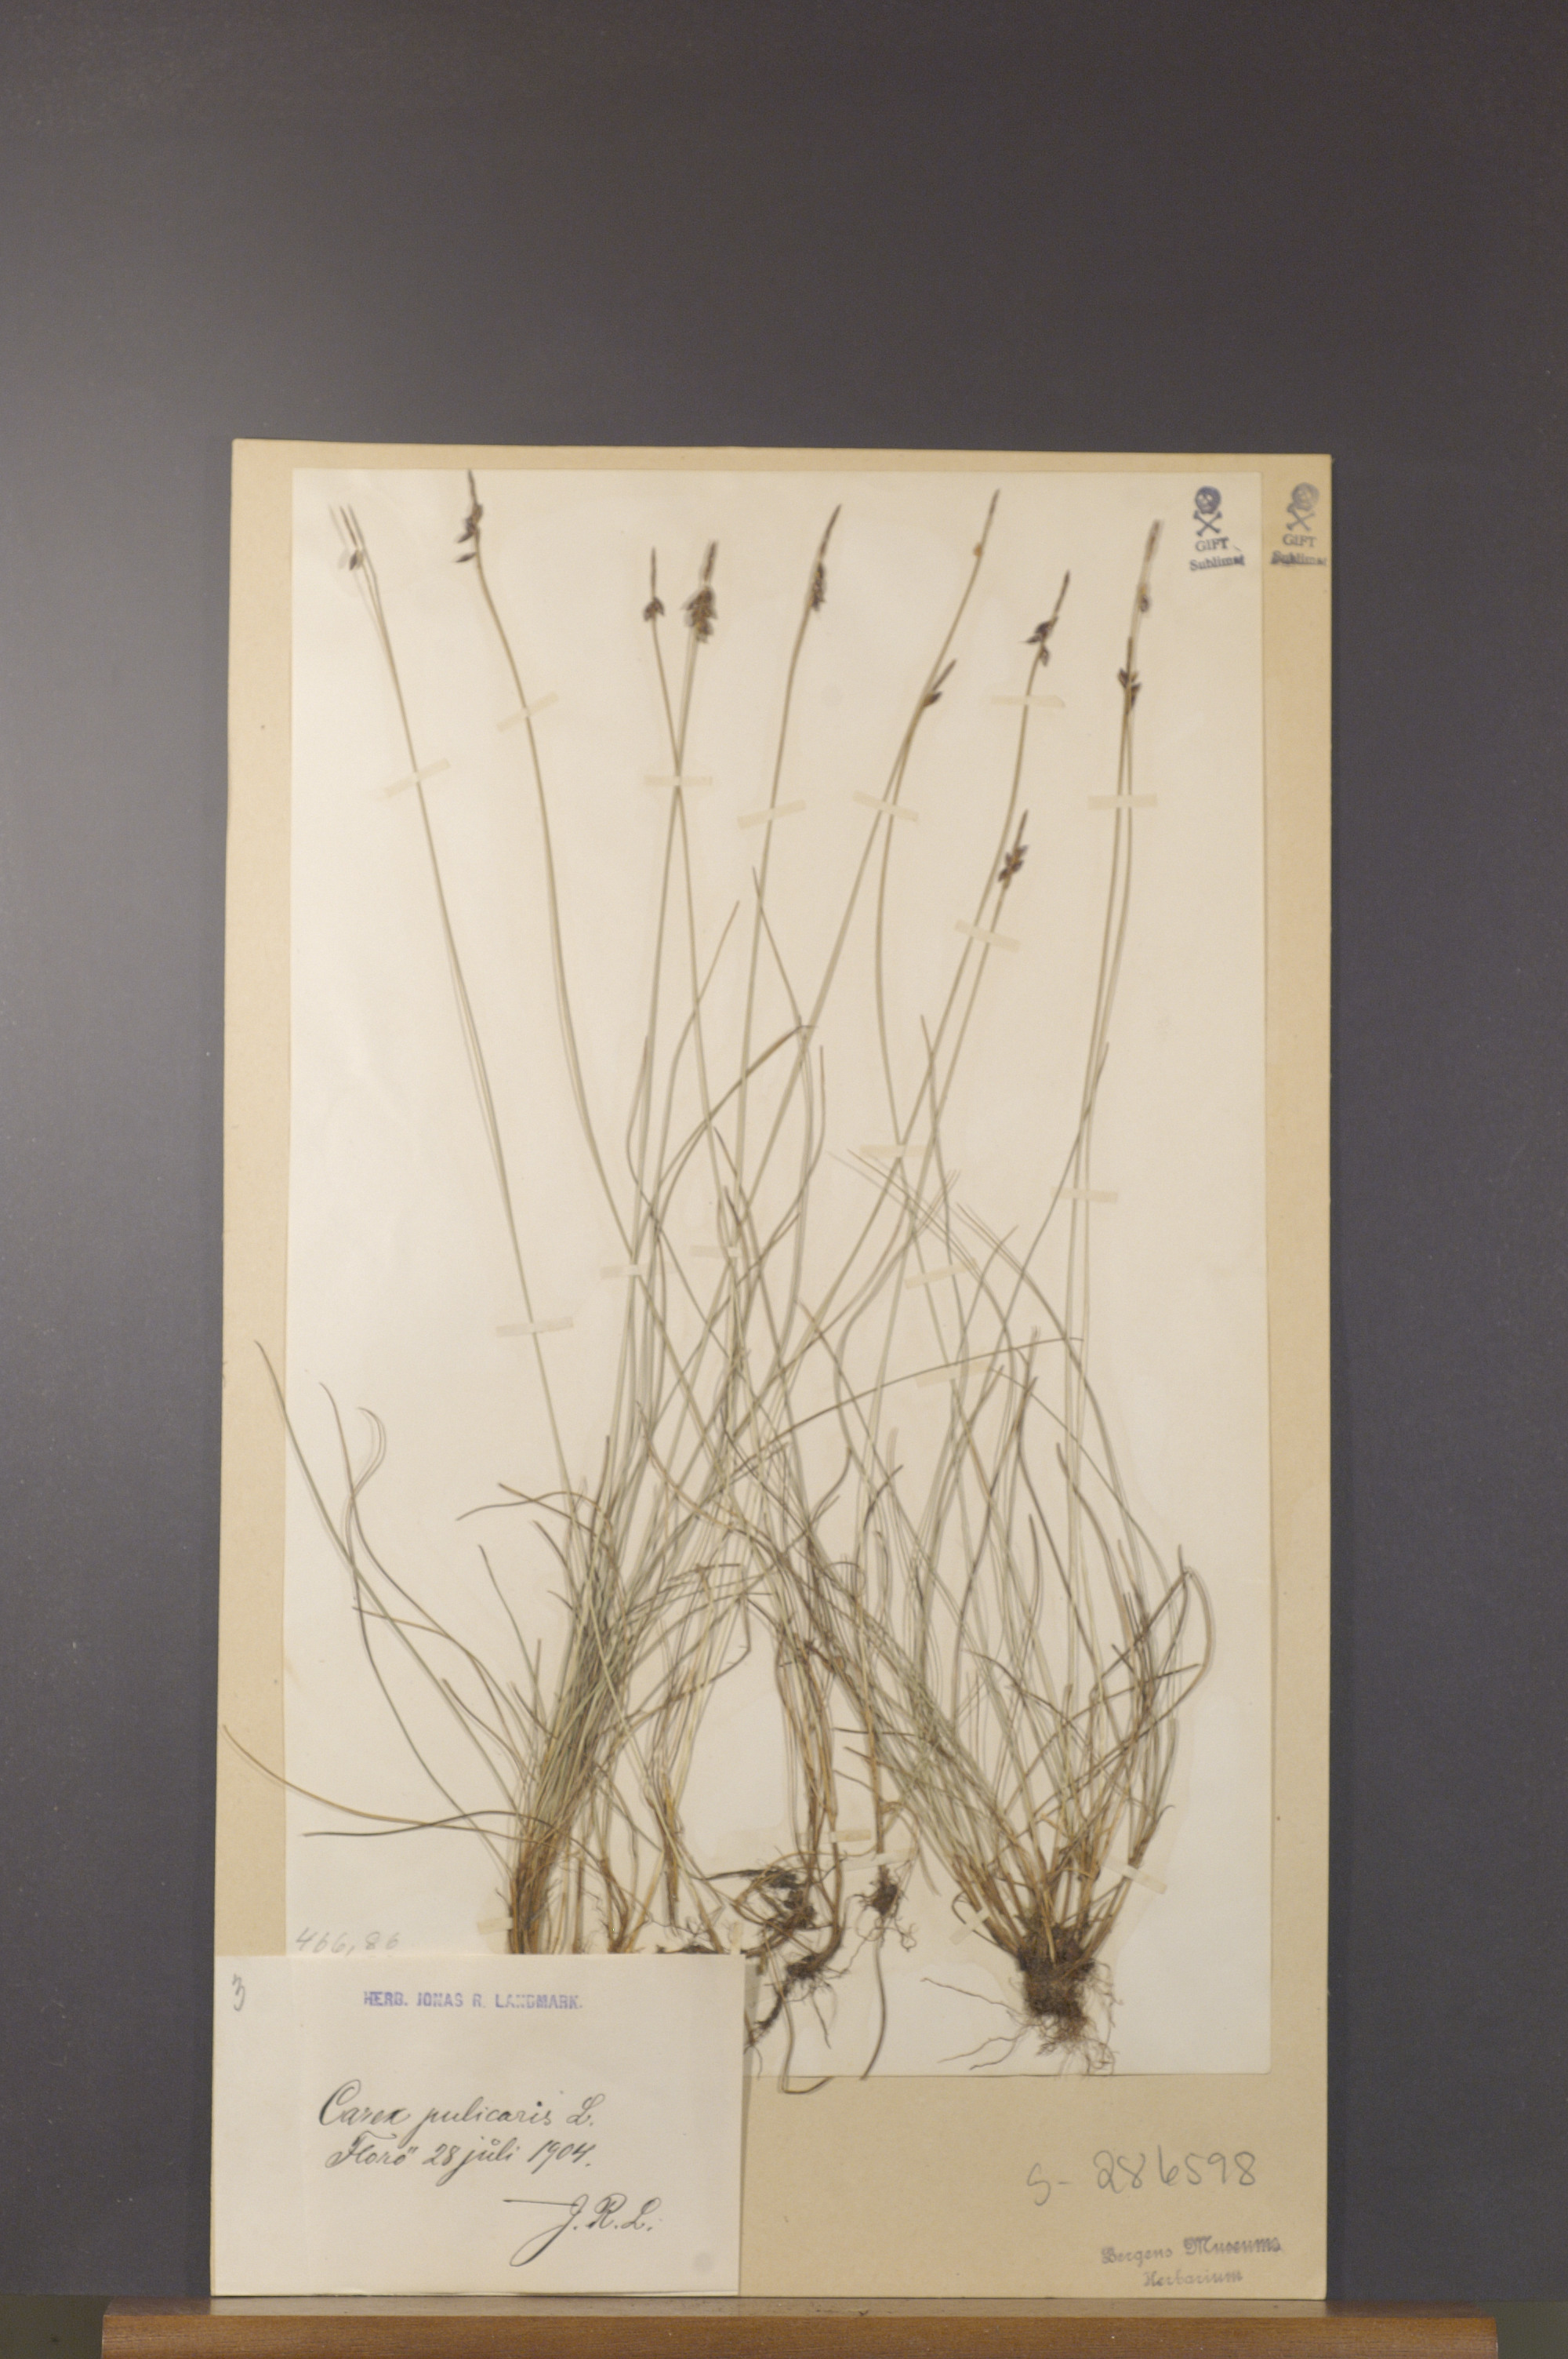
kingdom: Plantae
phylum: Tracheophyta
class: Liliopsida
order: Poales
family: Cyperaceae
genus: Carex
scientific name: Carex pulicaris
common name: Flea sedge
